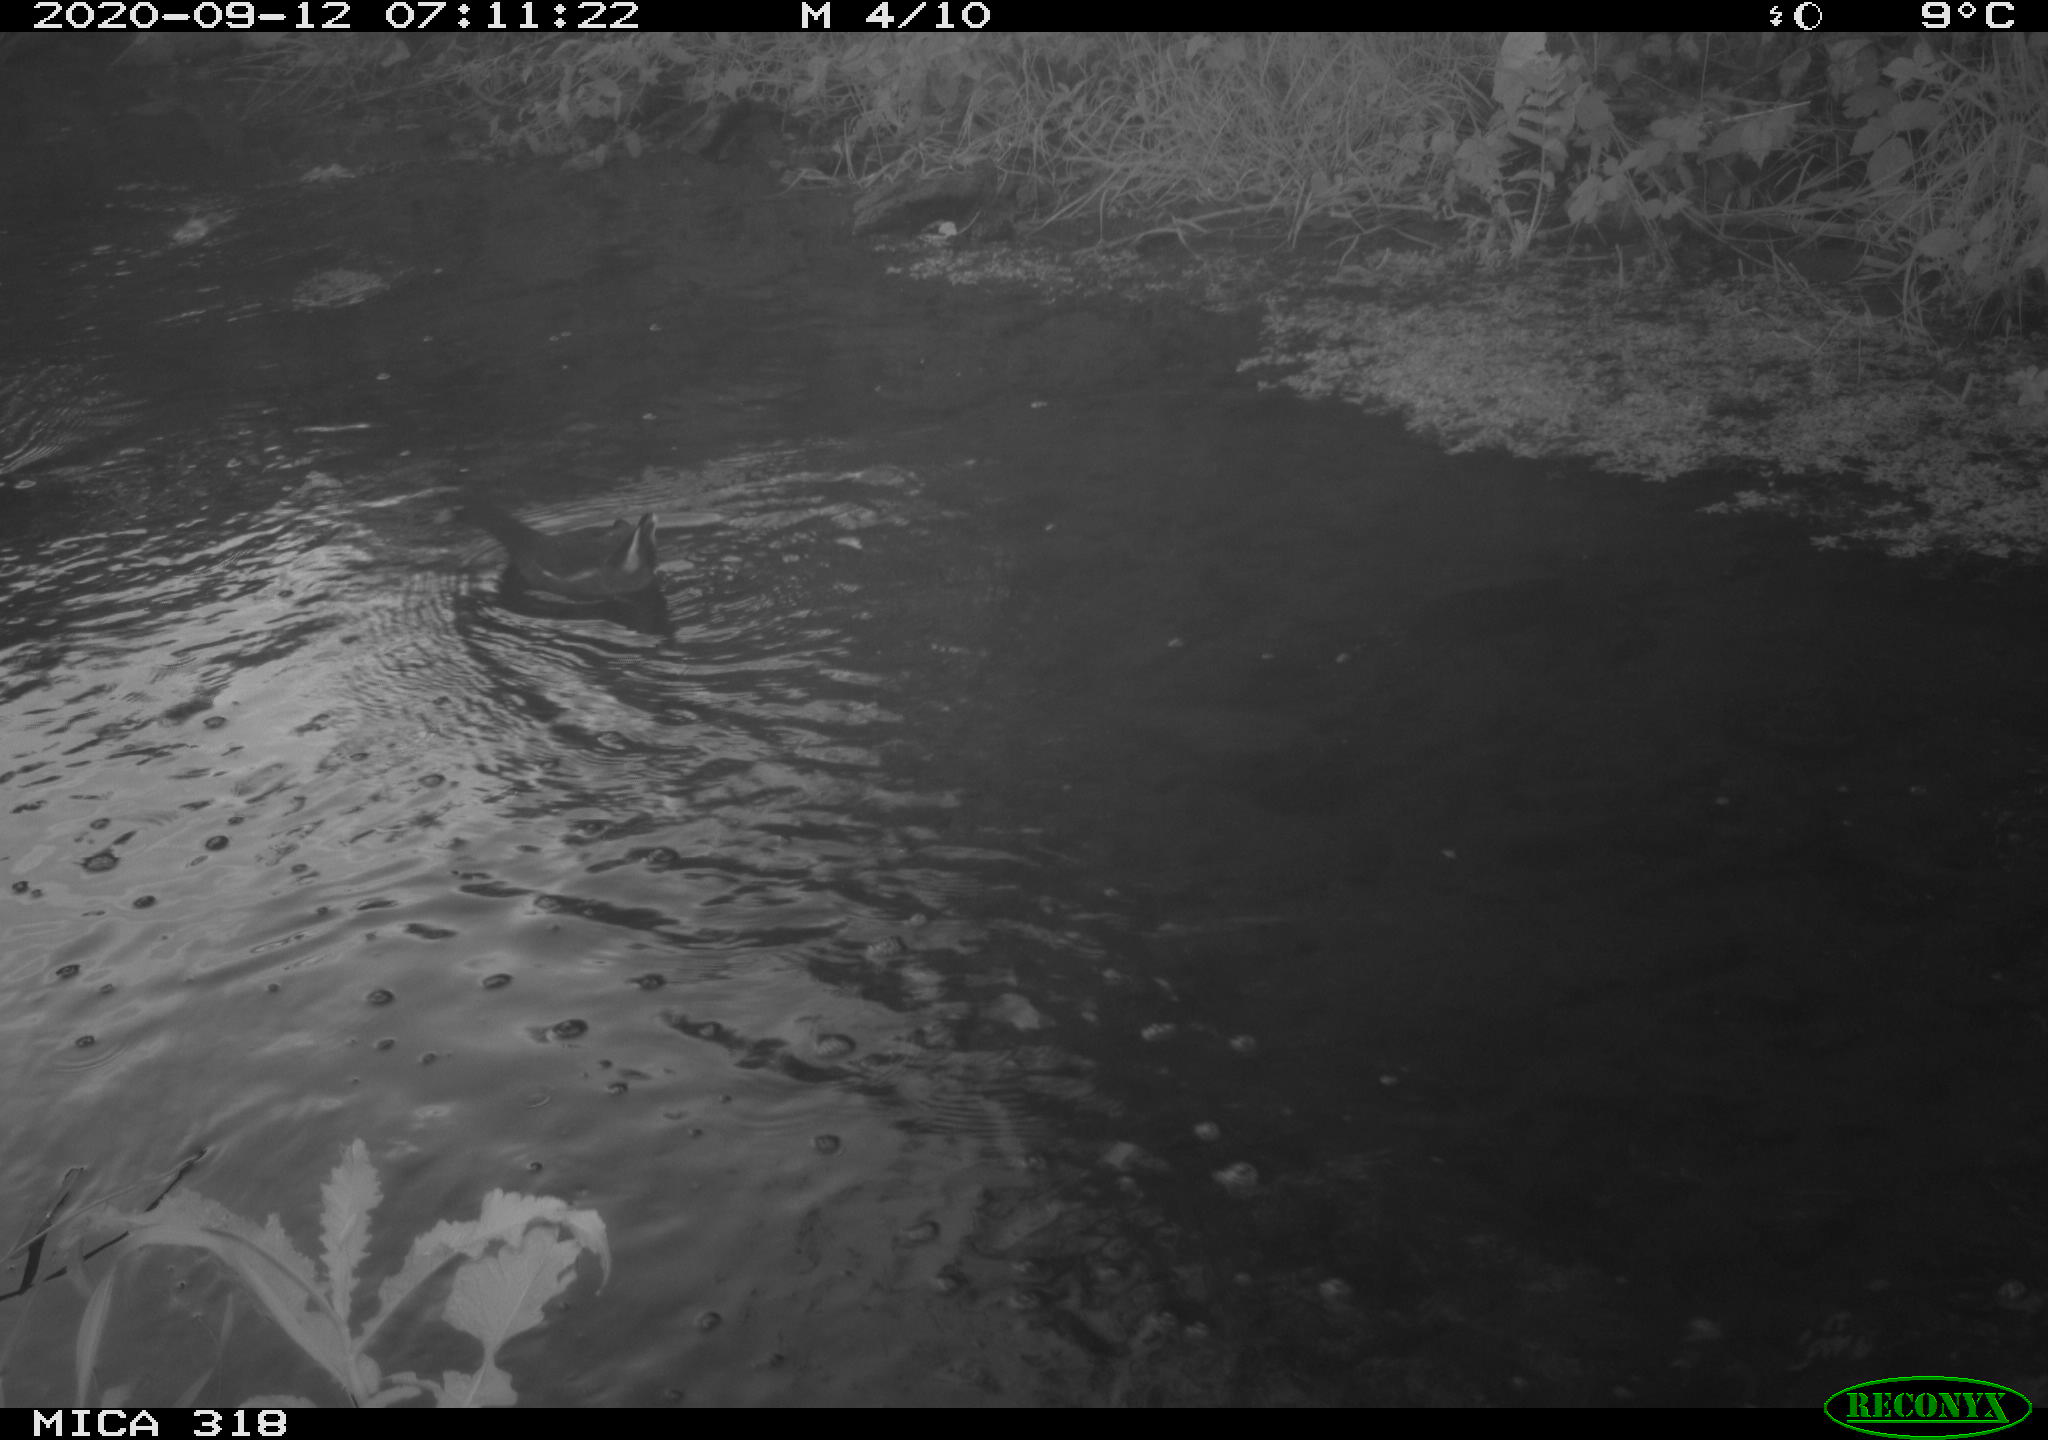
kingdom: Animalia
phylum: Chordata
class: Aves
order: Gruiformes
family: Rallidae
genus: Gallinula
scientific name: Gallinula chloropus
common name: Common moorhen
